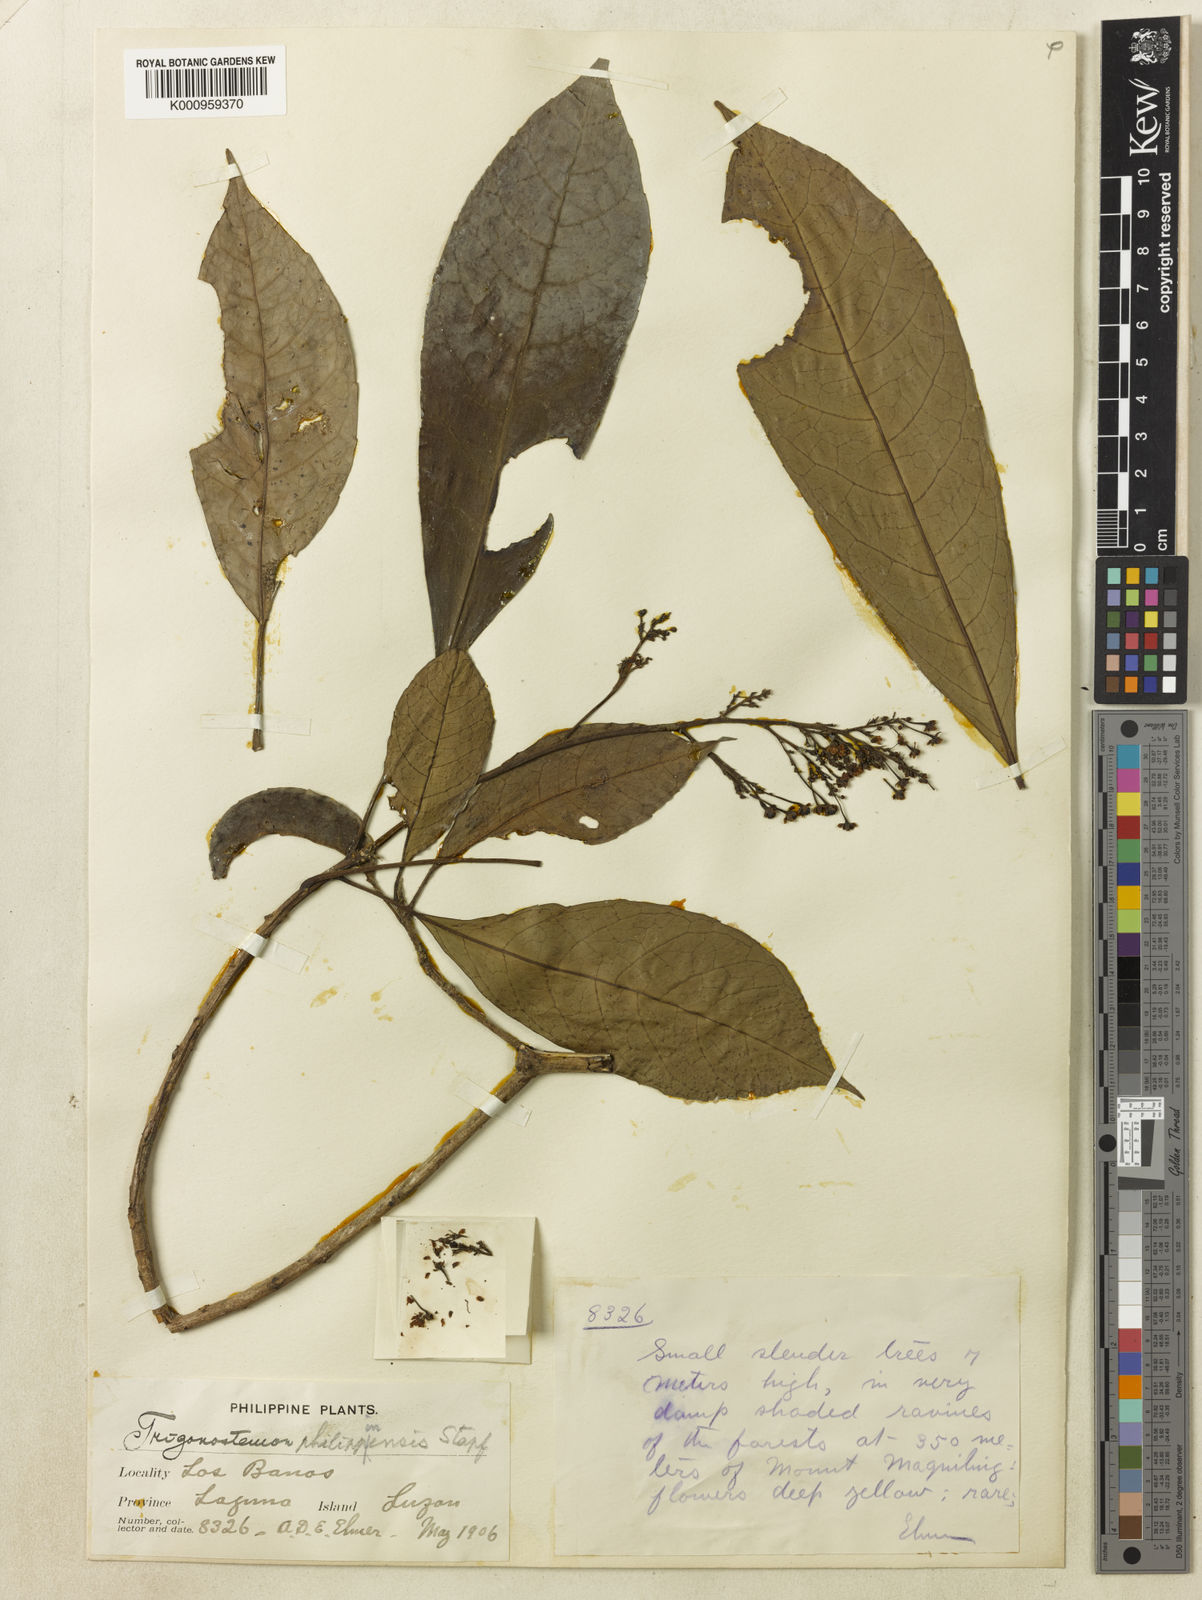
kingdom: Plantae
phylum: Tracheophyta
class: Magnoliopsida
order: Malpighiales
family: Euphorbiaceae
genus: Trigonostemon
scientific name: Trigonostemon philippinensis
